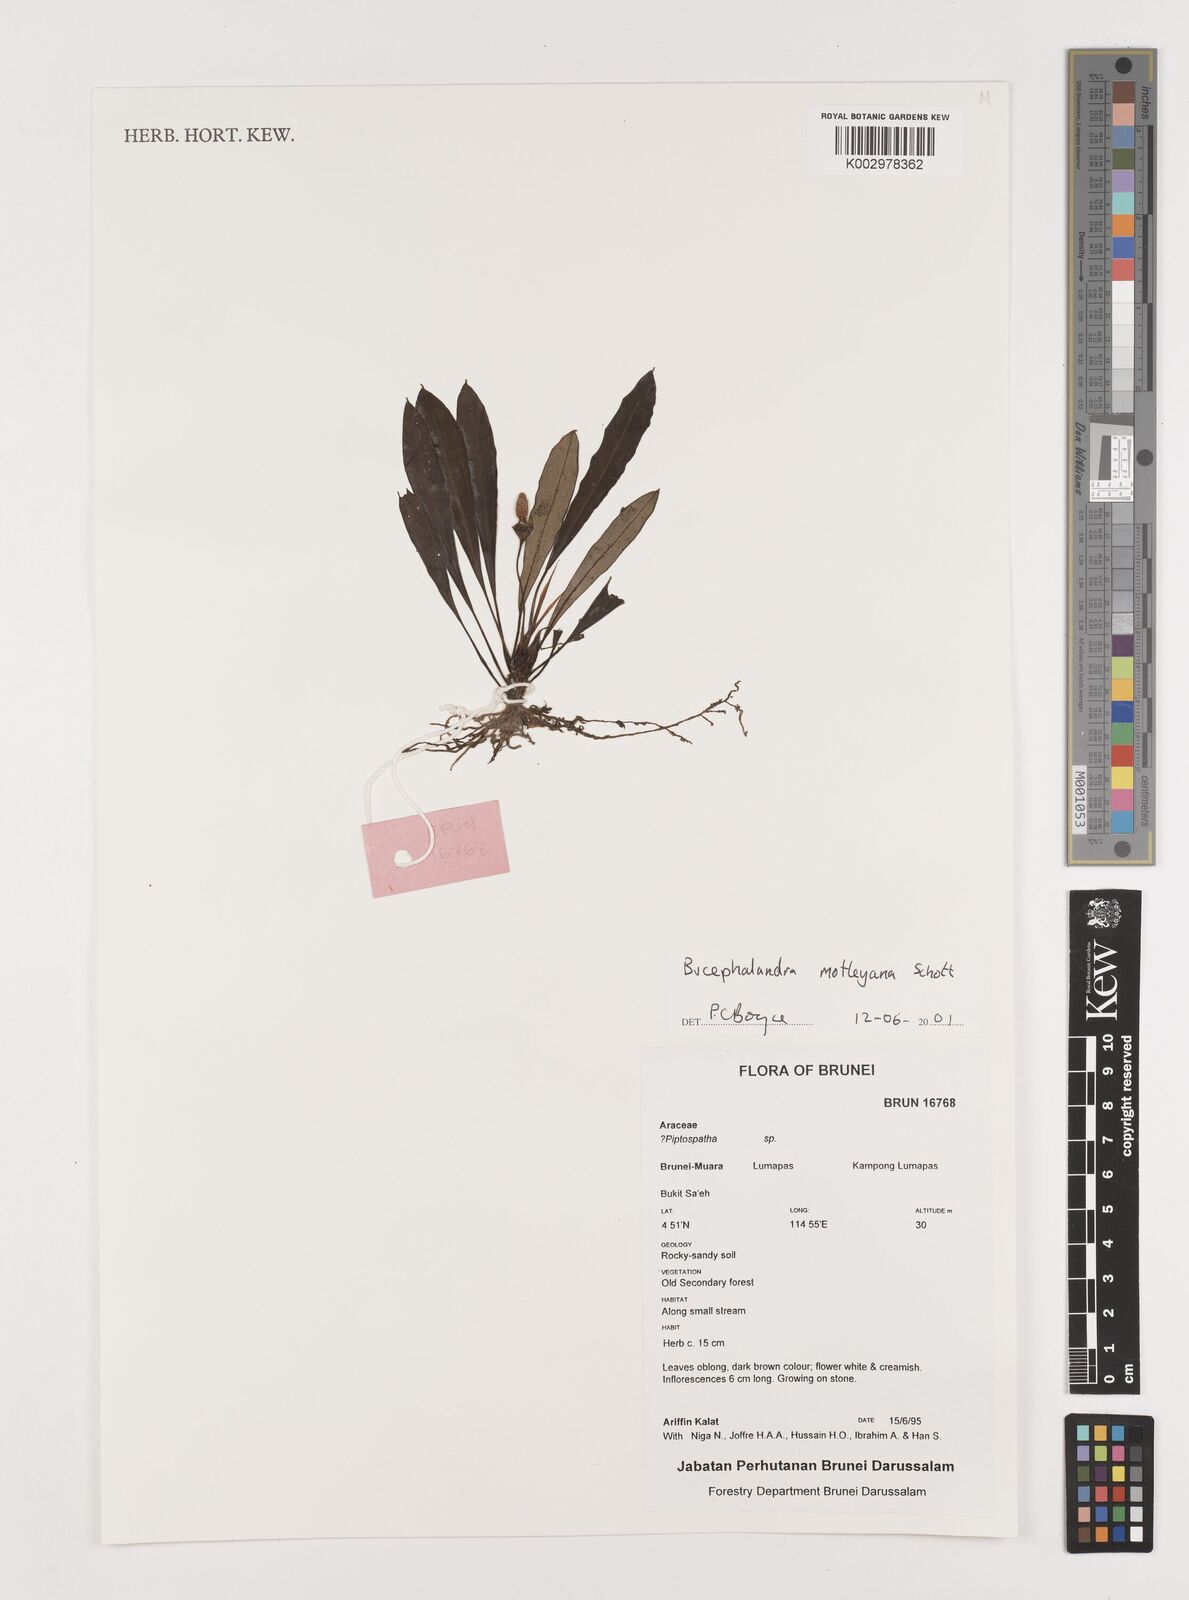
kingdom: Plantae
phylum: Tracheophyta
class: Liliopsida
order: Alismatales
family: Araceae
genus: Bucephalandra
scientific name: Bucephalandra motleyana
